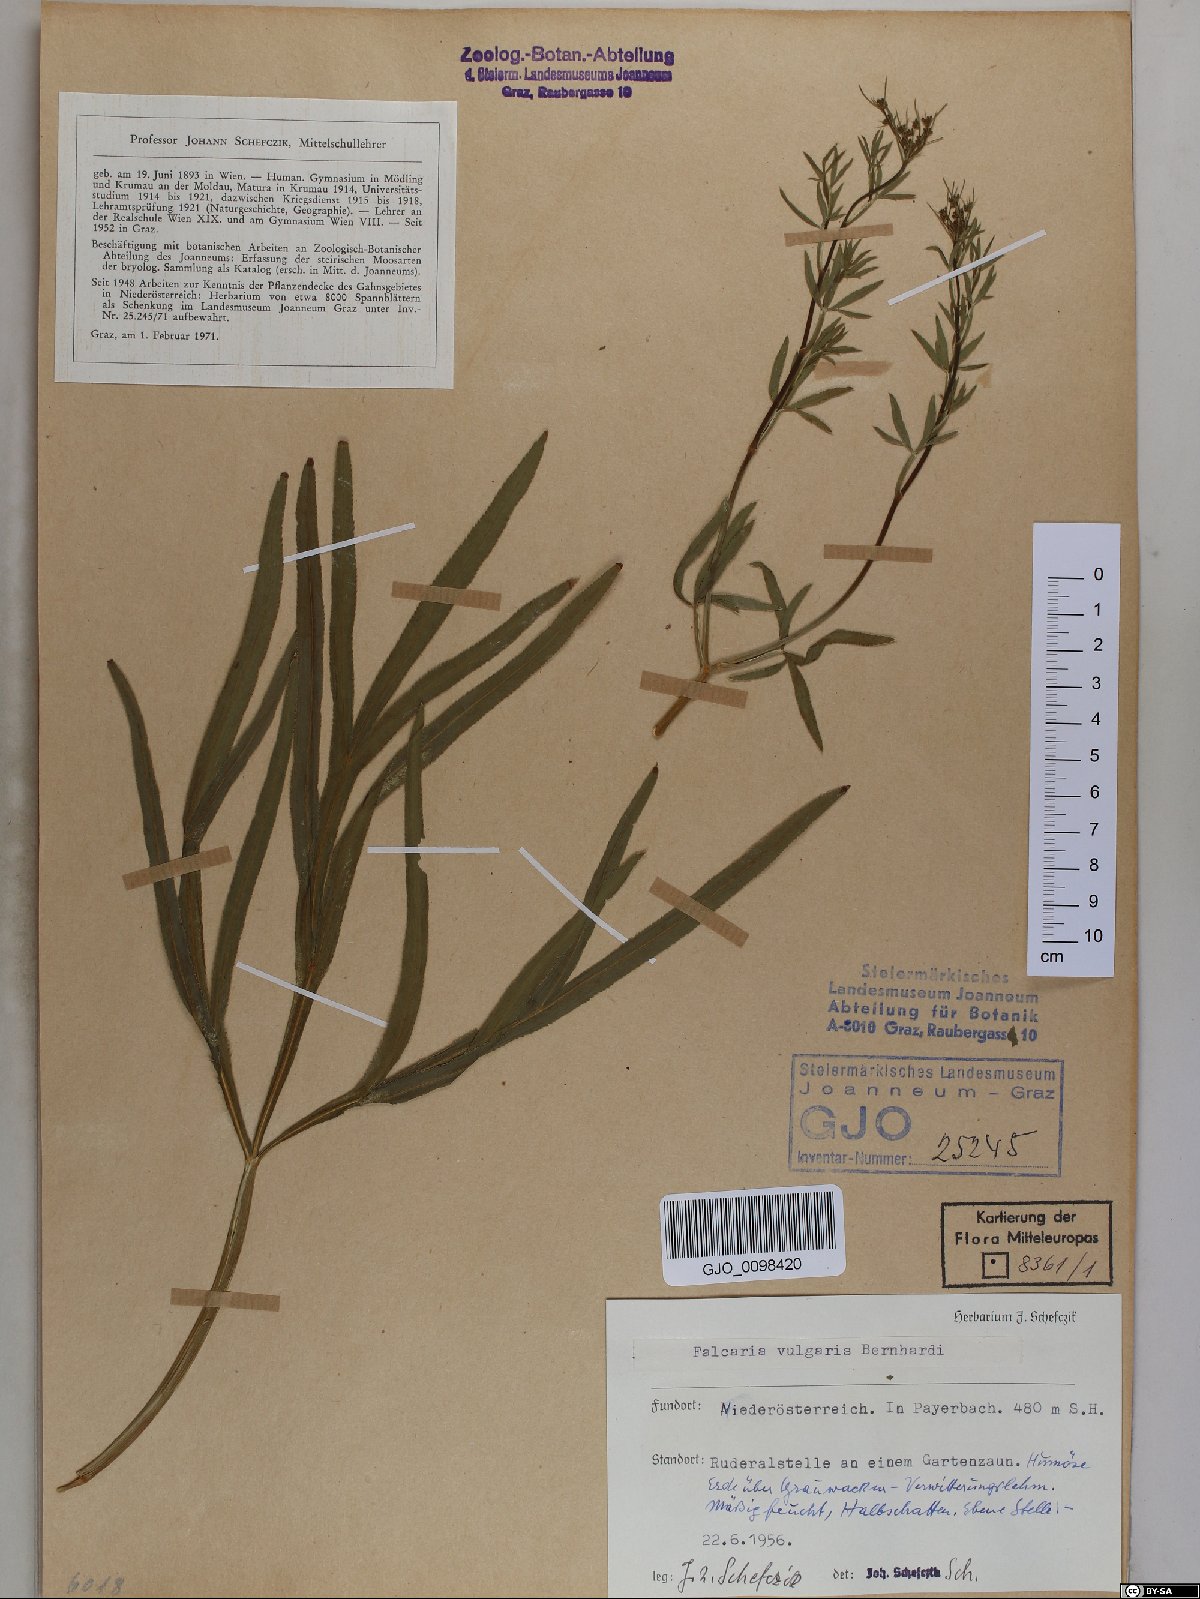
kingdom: Plantae
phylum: Tracheophyta
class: Magnoliopsida
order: Apiales
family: Apiaceae
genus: Falcaria
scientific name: Falcaria vulgaris
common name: Longleaf
